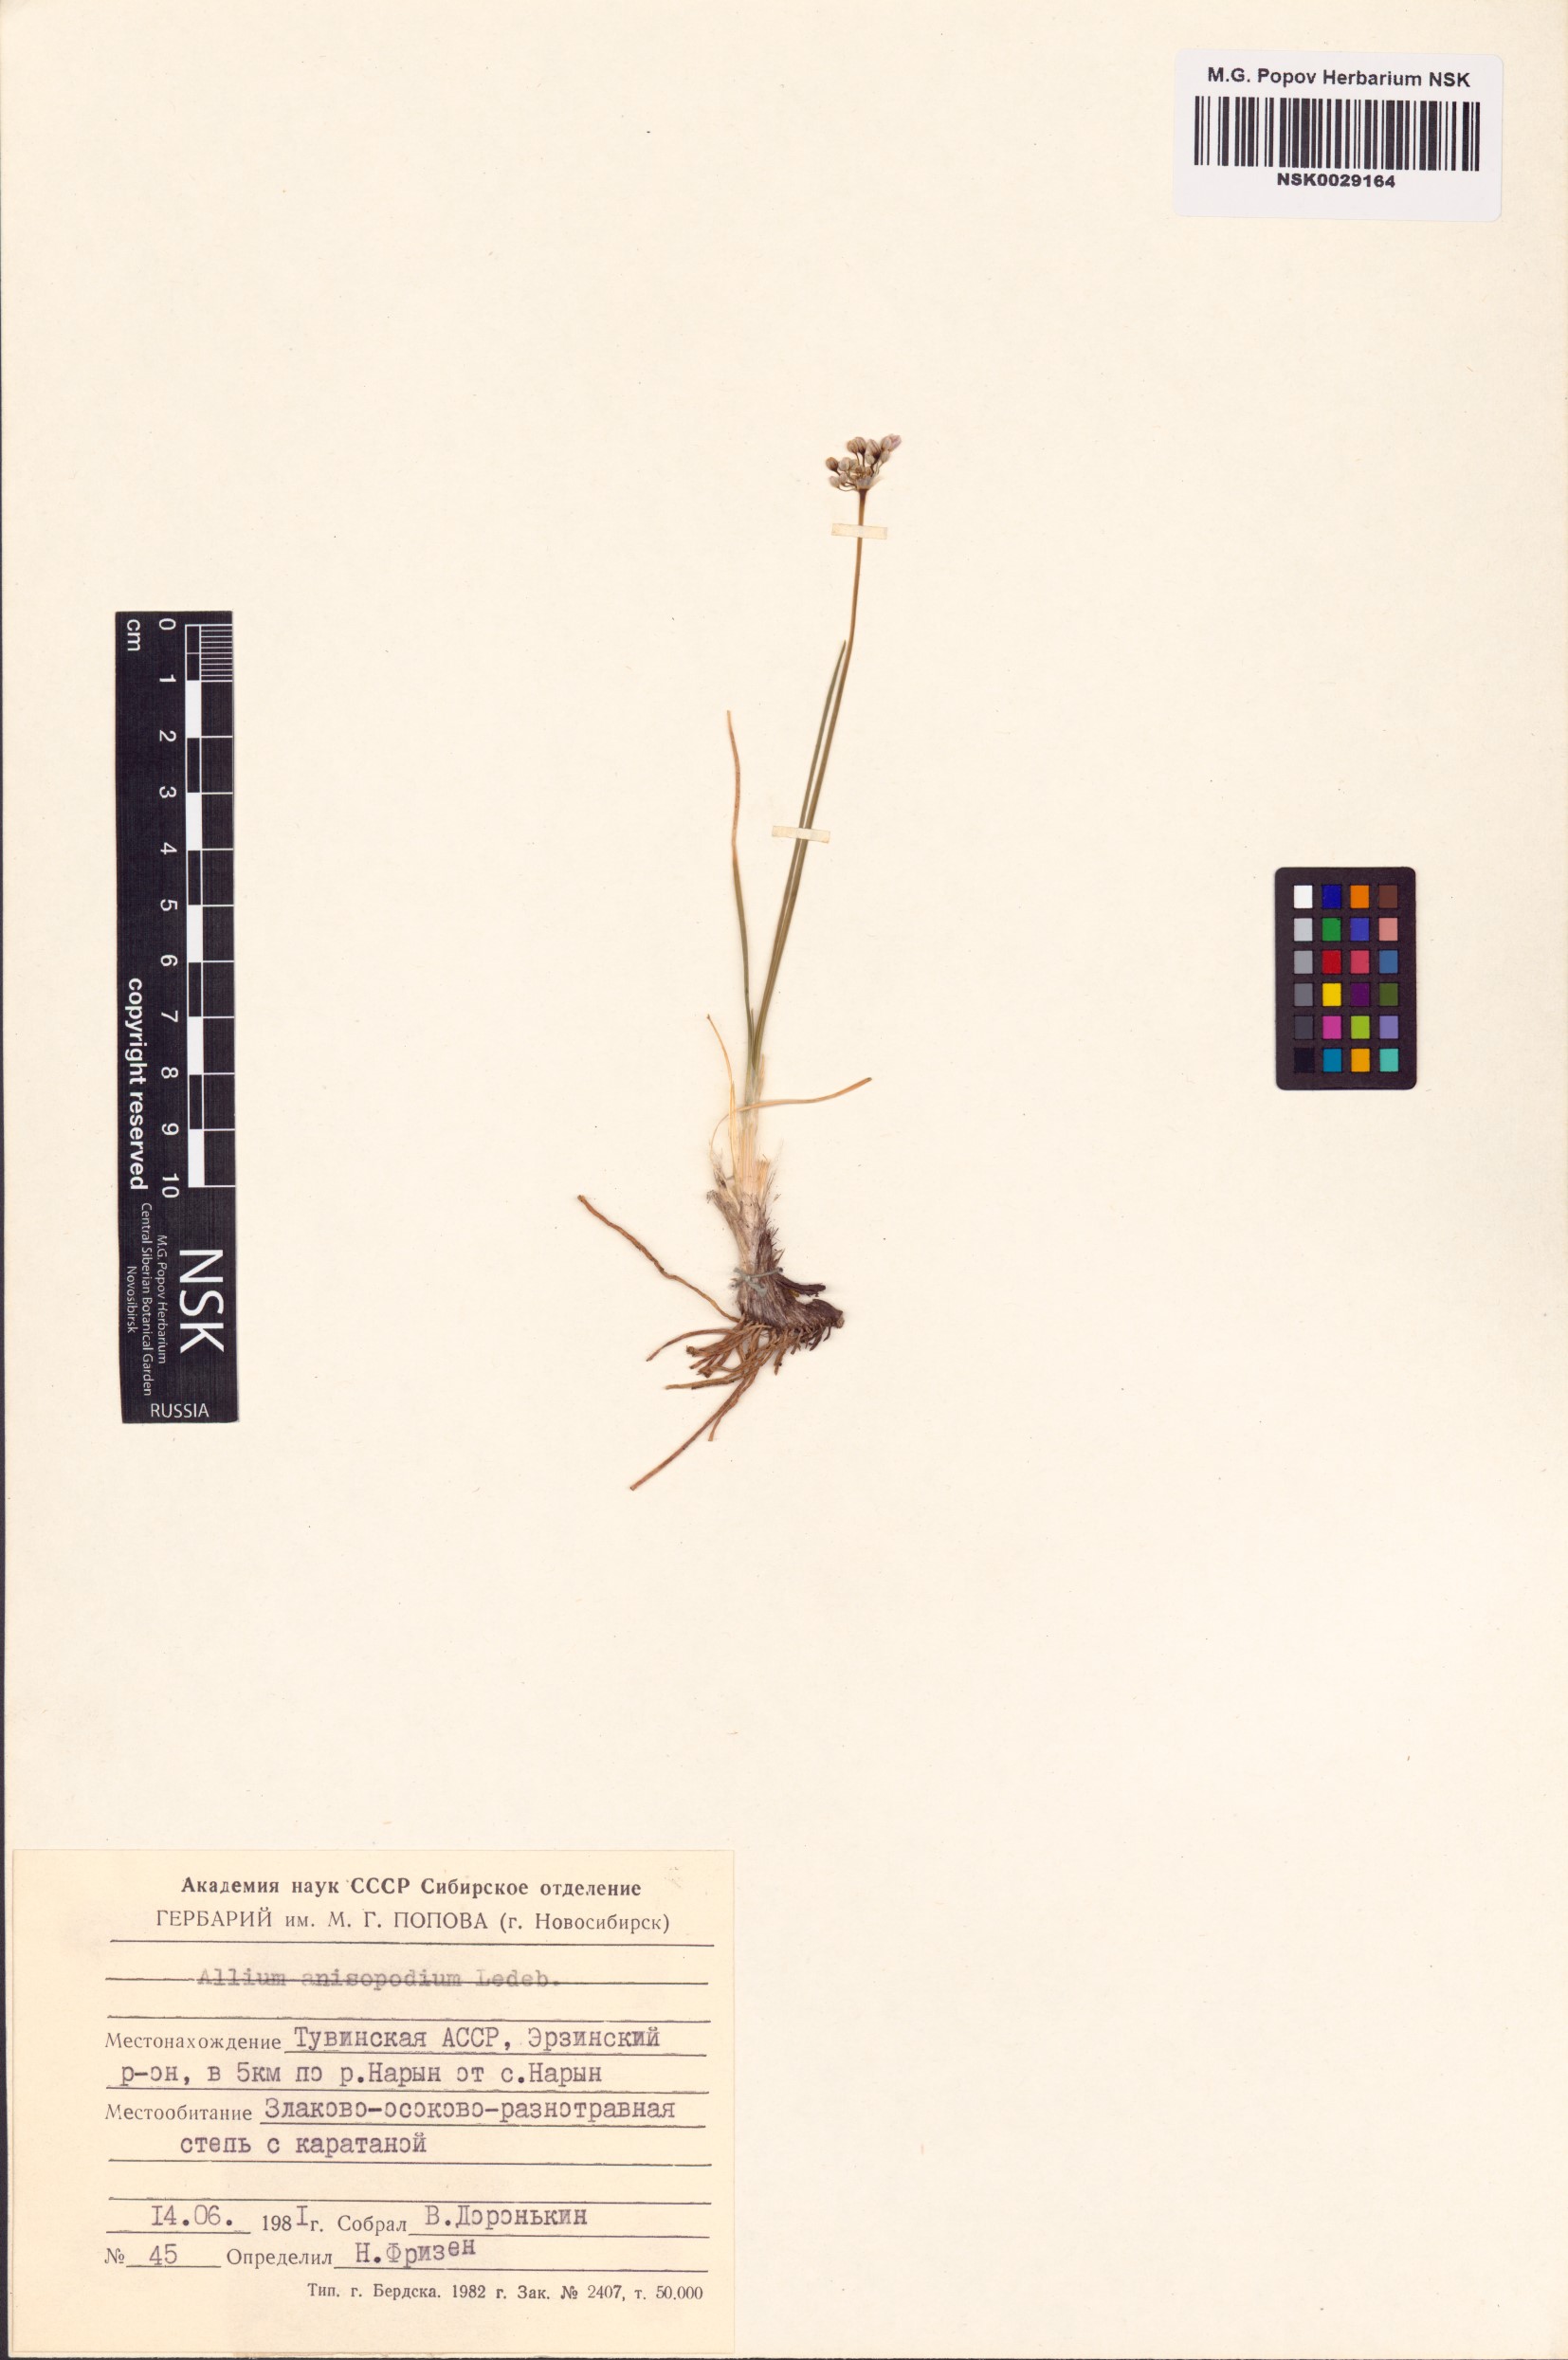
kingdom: Plantae
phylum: Tracheophyta
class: Liliopsida
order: Asparagales
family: Amaryllidaceae
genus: Allium
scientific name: Allium anisopodium
